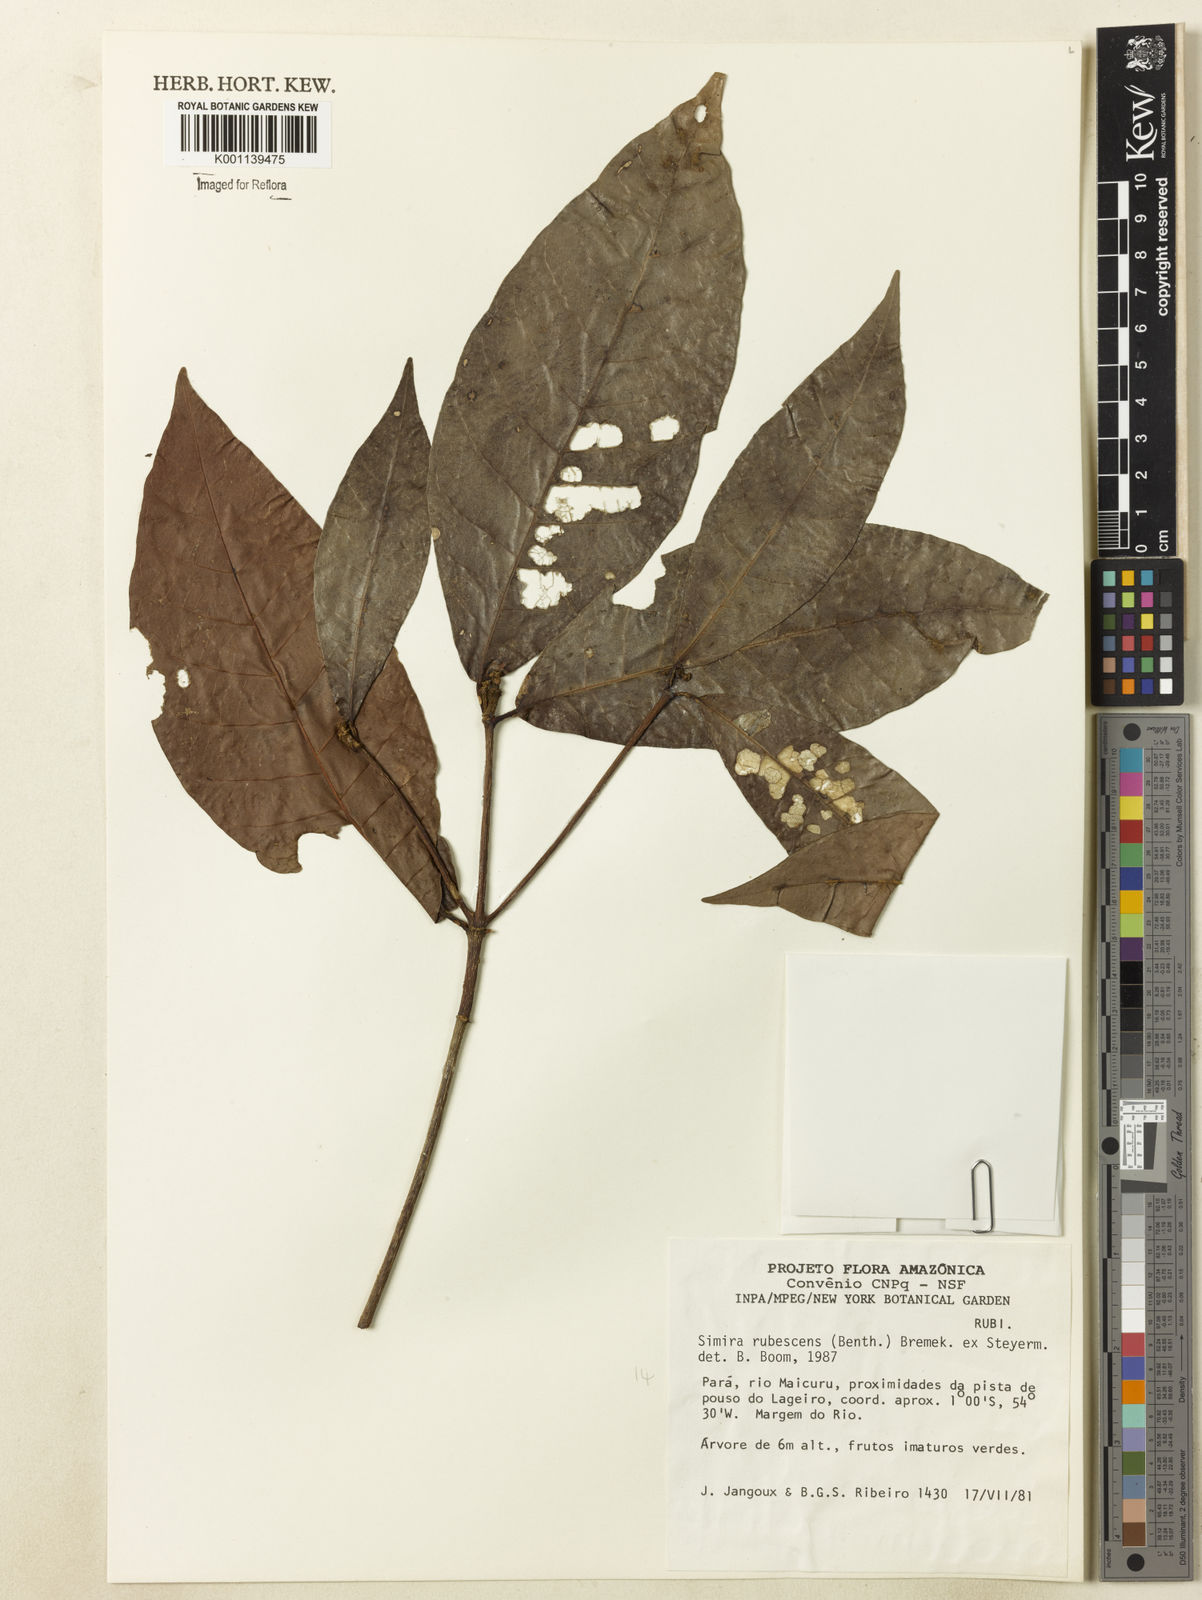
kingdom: Plantae
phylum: Tracheophyta
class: Magnoliopsida
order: Gentianales
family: Rubiaceae
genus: Simira
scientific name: Simira rubescens
